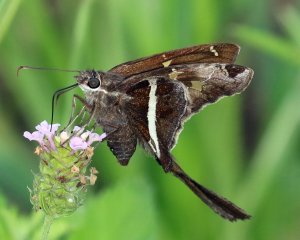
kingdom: Animalia
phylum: Arthropoda
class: Insecta
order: Lepidoptera
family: Hesperiidae
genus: Chioides
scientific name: Chioides catillus
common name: White-striped Longtail
